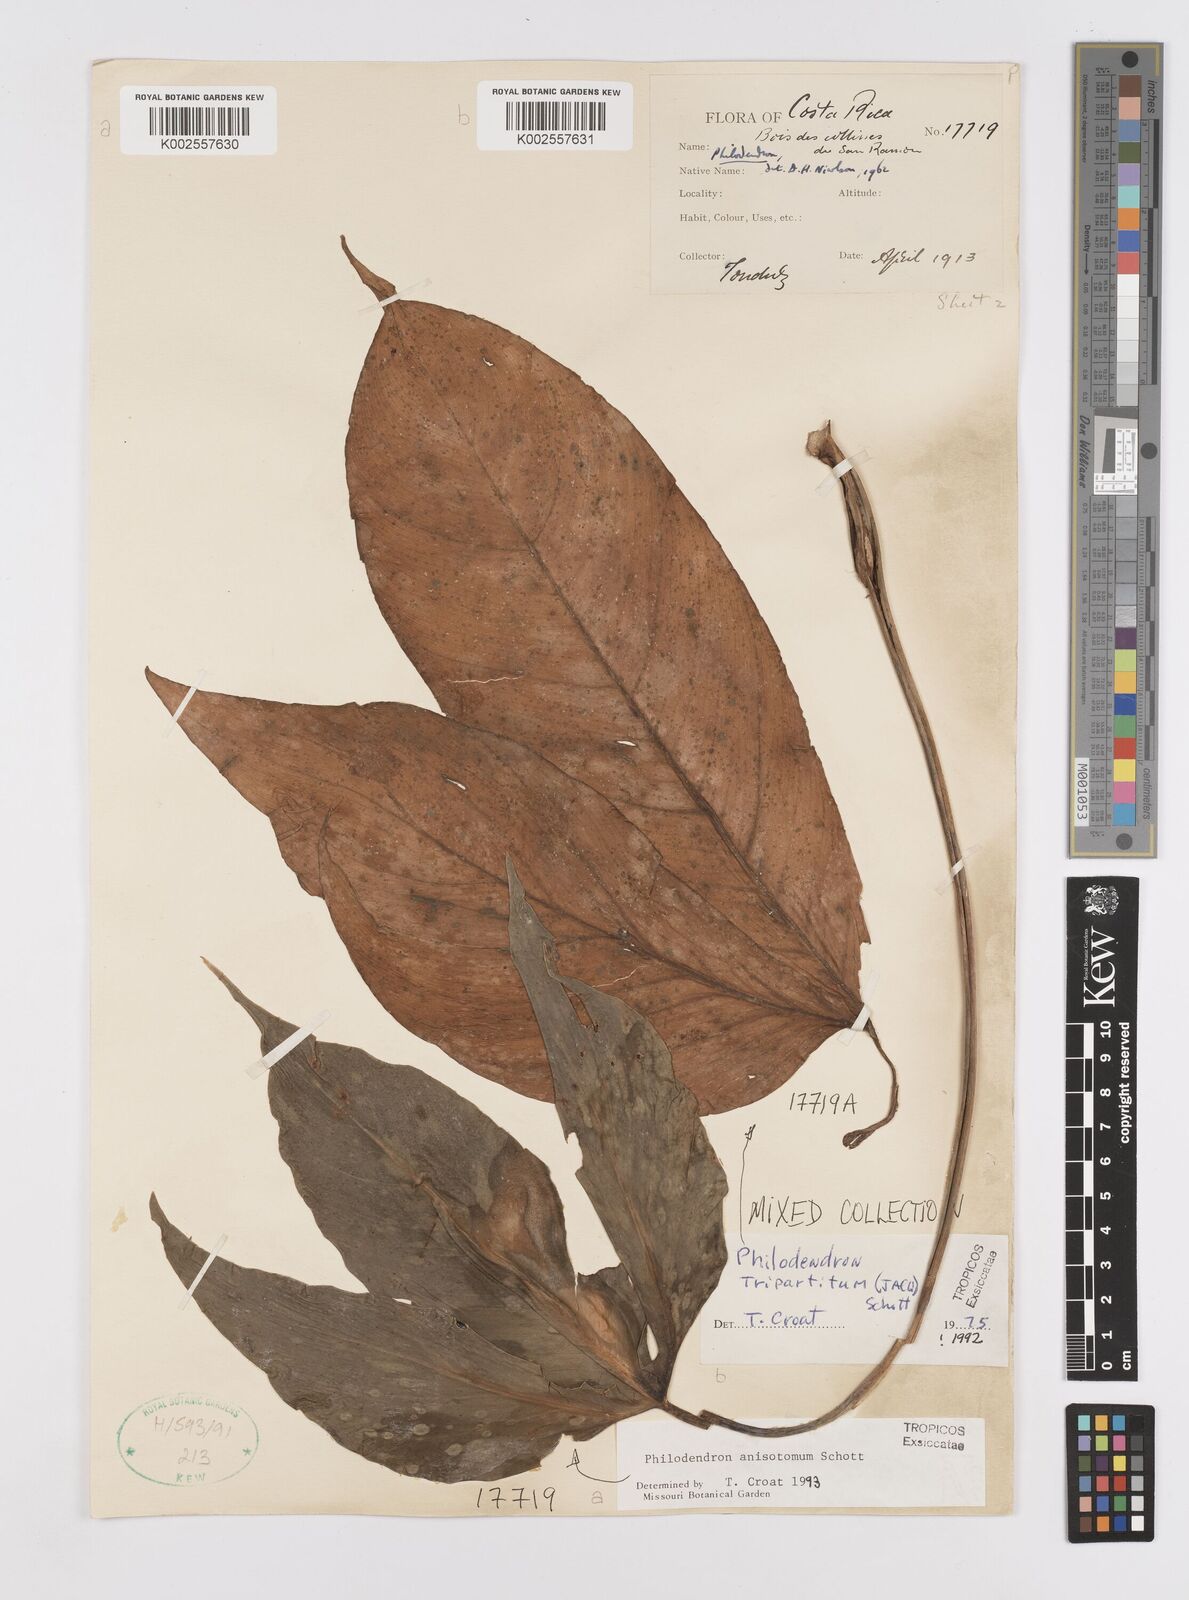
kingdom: Plantae
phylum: Tracheophyta
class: Liliopsida
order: Alismatales
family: Araceae
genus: Philodendron
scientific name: Philodendron tripartitum
